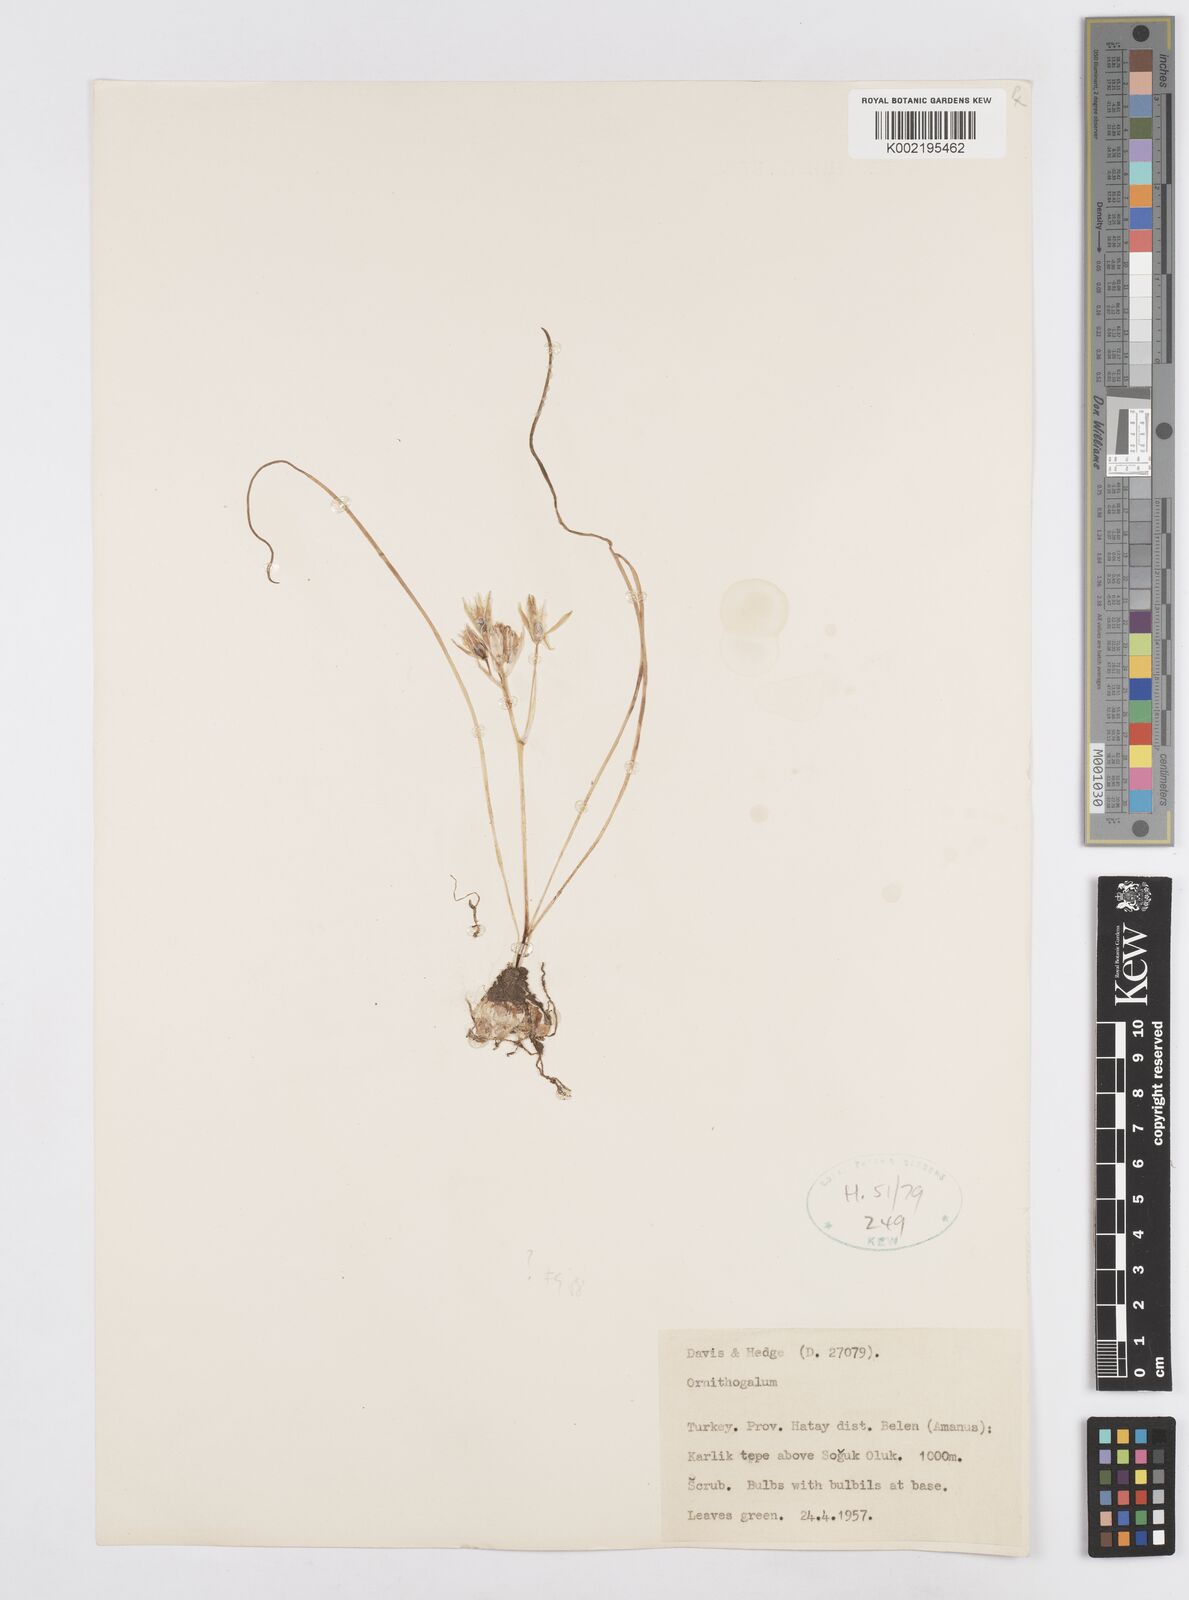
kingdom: Plantae
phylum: Tracheophyta
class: Liliopsida
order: Asparagales
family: Asparagaceae
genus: Ornithogalum
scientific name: Ornithogalum
